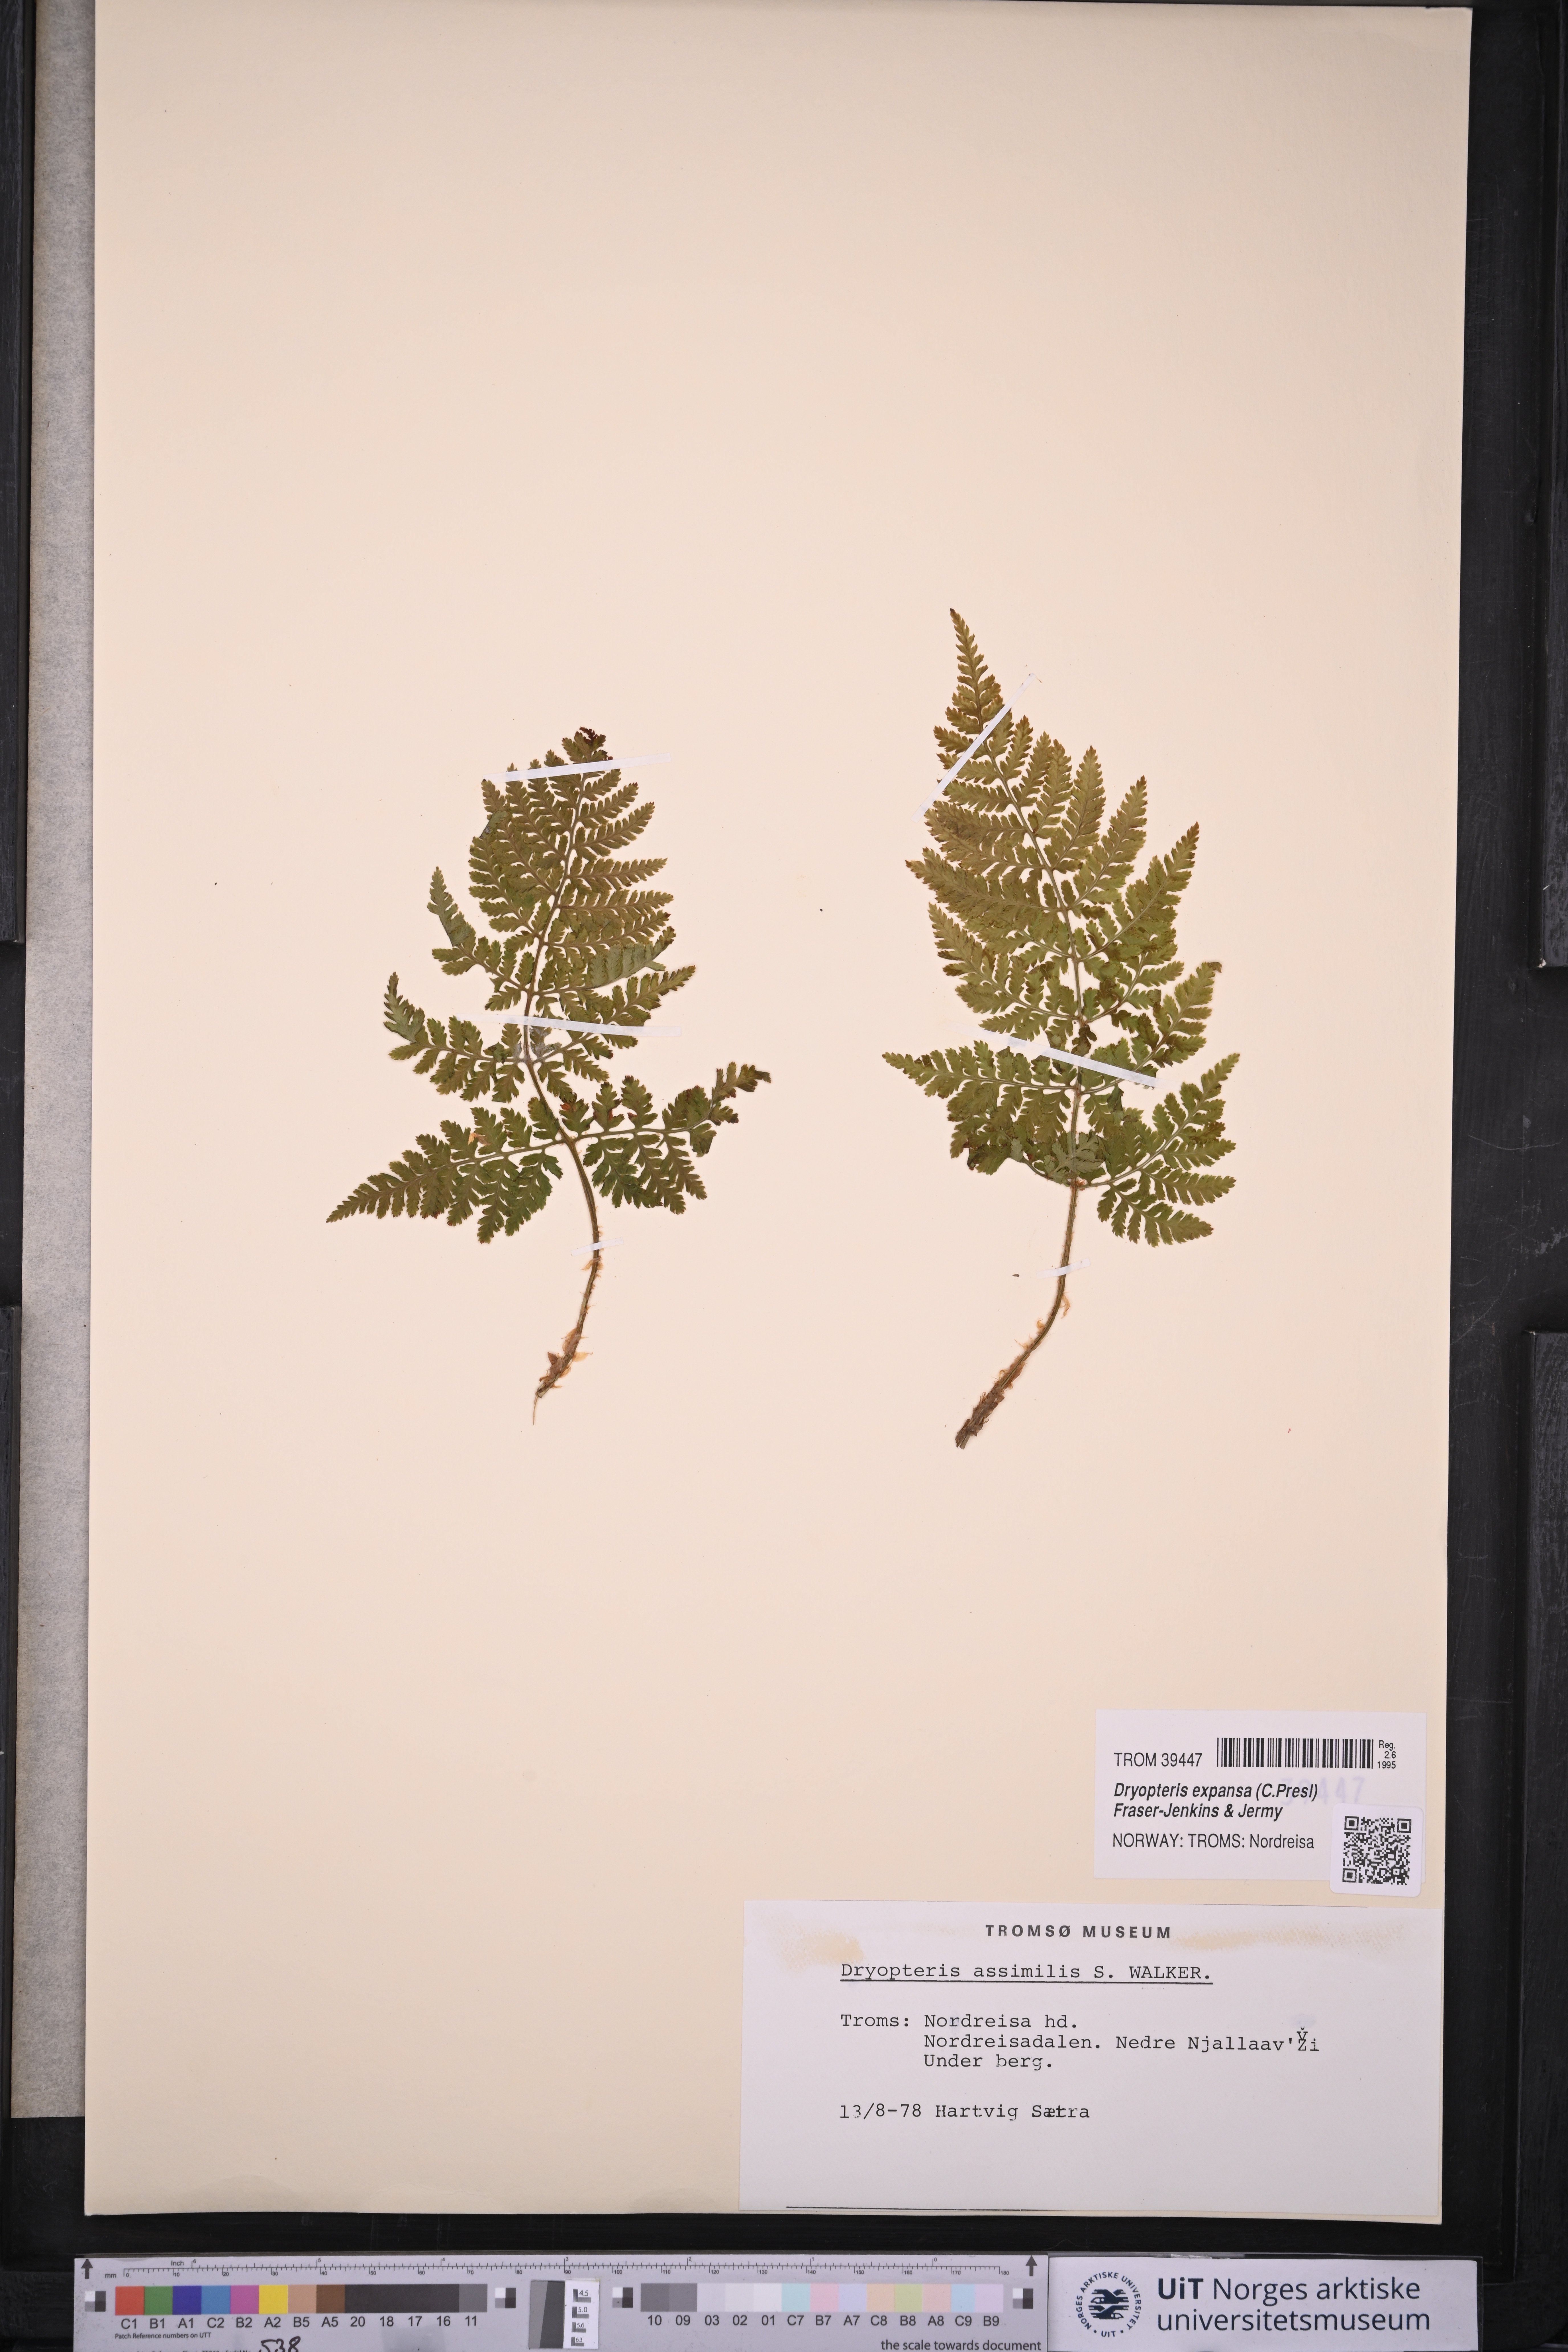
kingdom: Plantae
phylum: Tracheophyta
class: Polypodiopsida
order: Polypodiales
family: Dryopteridaceae
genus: Dryopteris
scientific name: Dryopteris expansa
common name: Northern buckler fern
